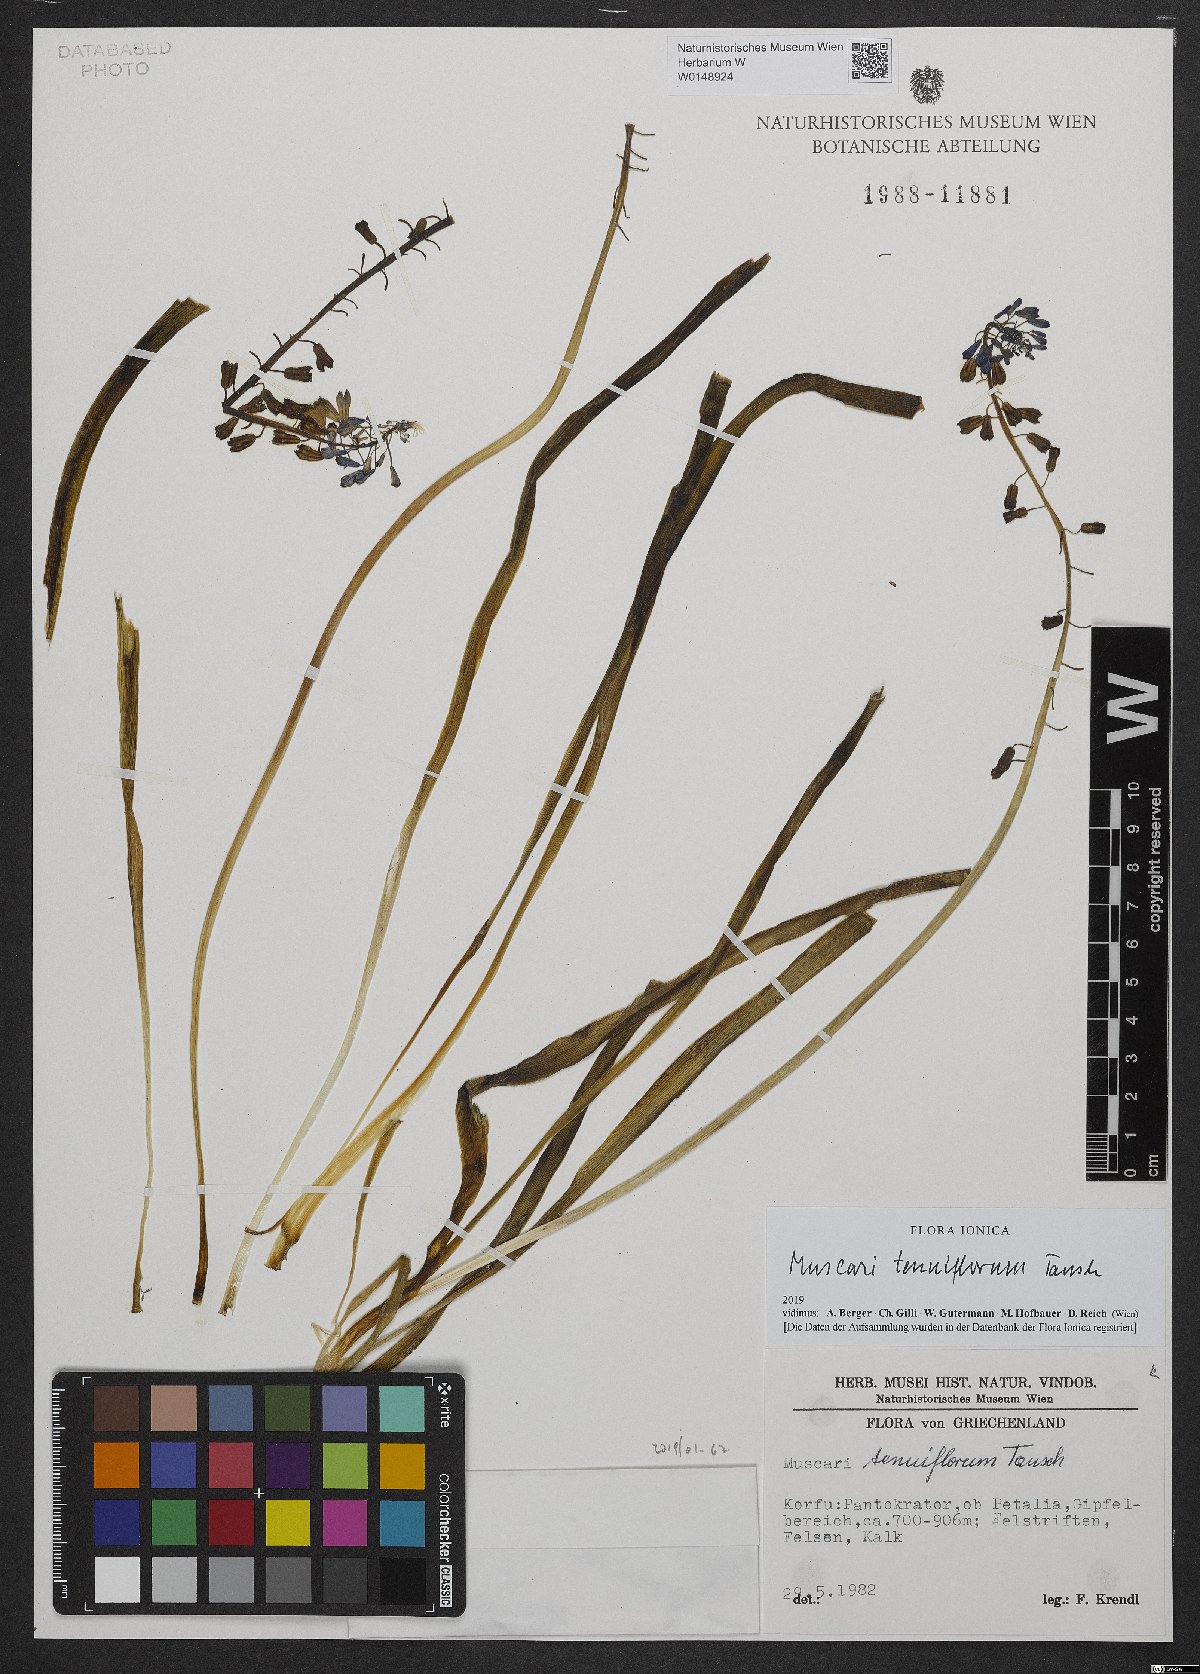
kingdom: Plantae
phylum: Tracheophyta
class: Liliopsida
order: Asparagales
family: Asparagaceae
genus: Muscari
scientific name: Muscari tenuiflorum
